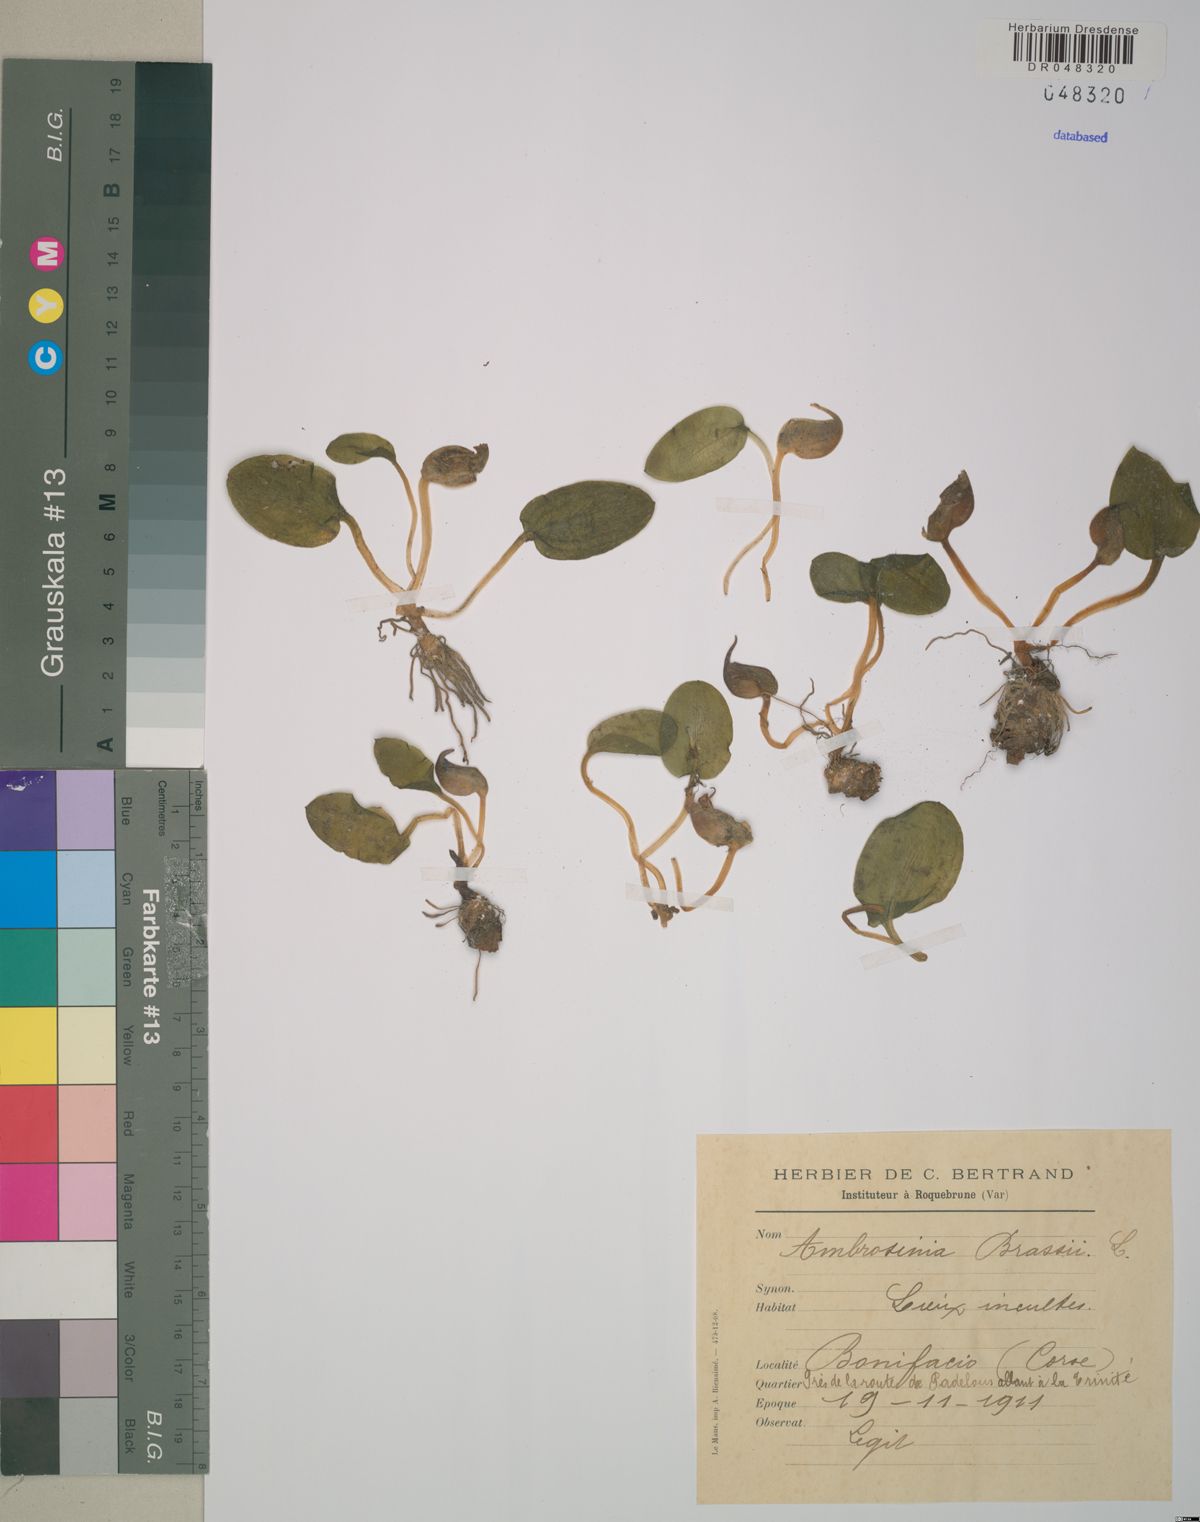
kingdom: Plantae
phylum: Tracheophyta
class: Liliopsida
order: Alismatales
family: Araceae
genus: Ambrosina
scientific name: Ambrosina bassii
